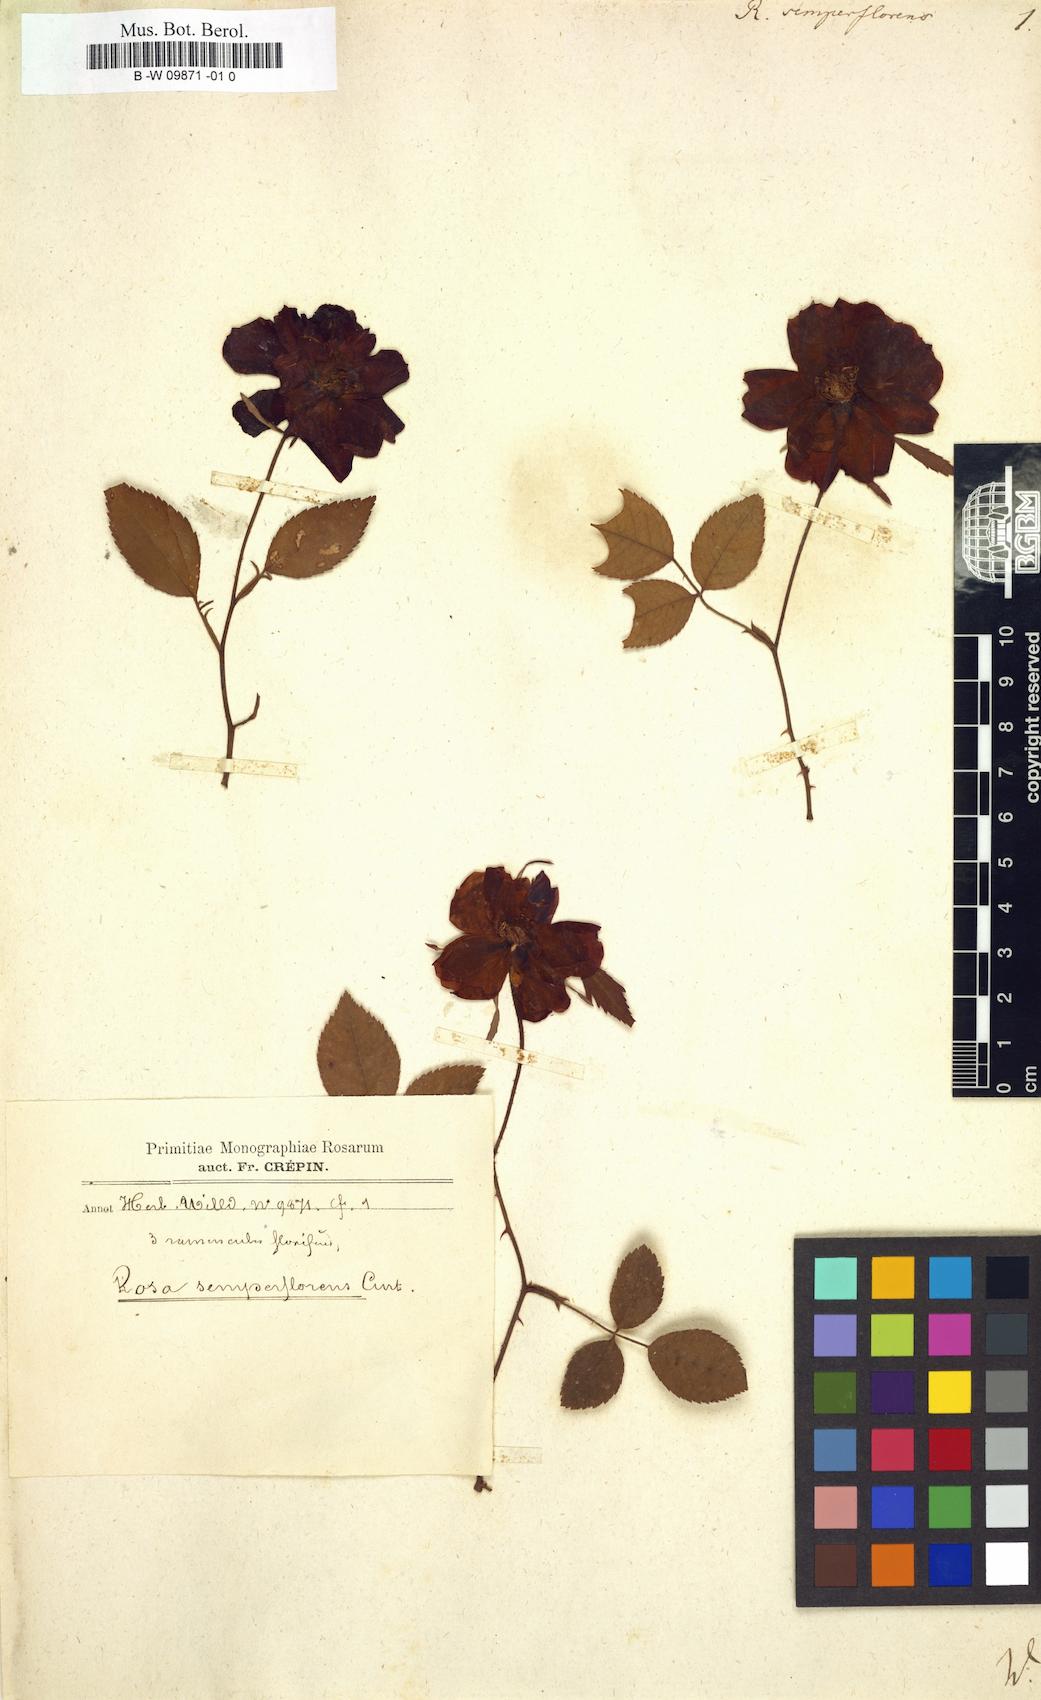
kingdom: Plantae
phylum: Tracheophyta
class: Magnoliopsida
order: Rosales
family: Rosaceae
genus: Rosa
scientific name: Rosa chinensis
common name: China rose
